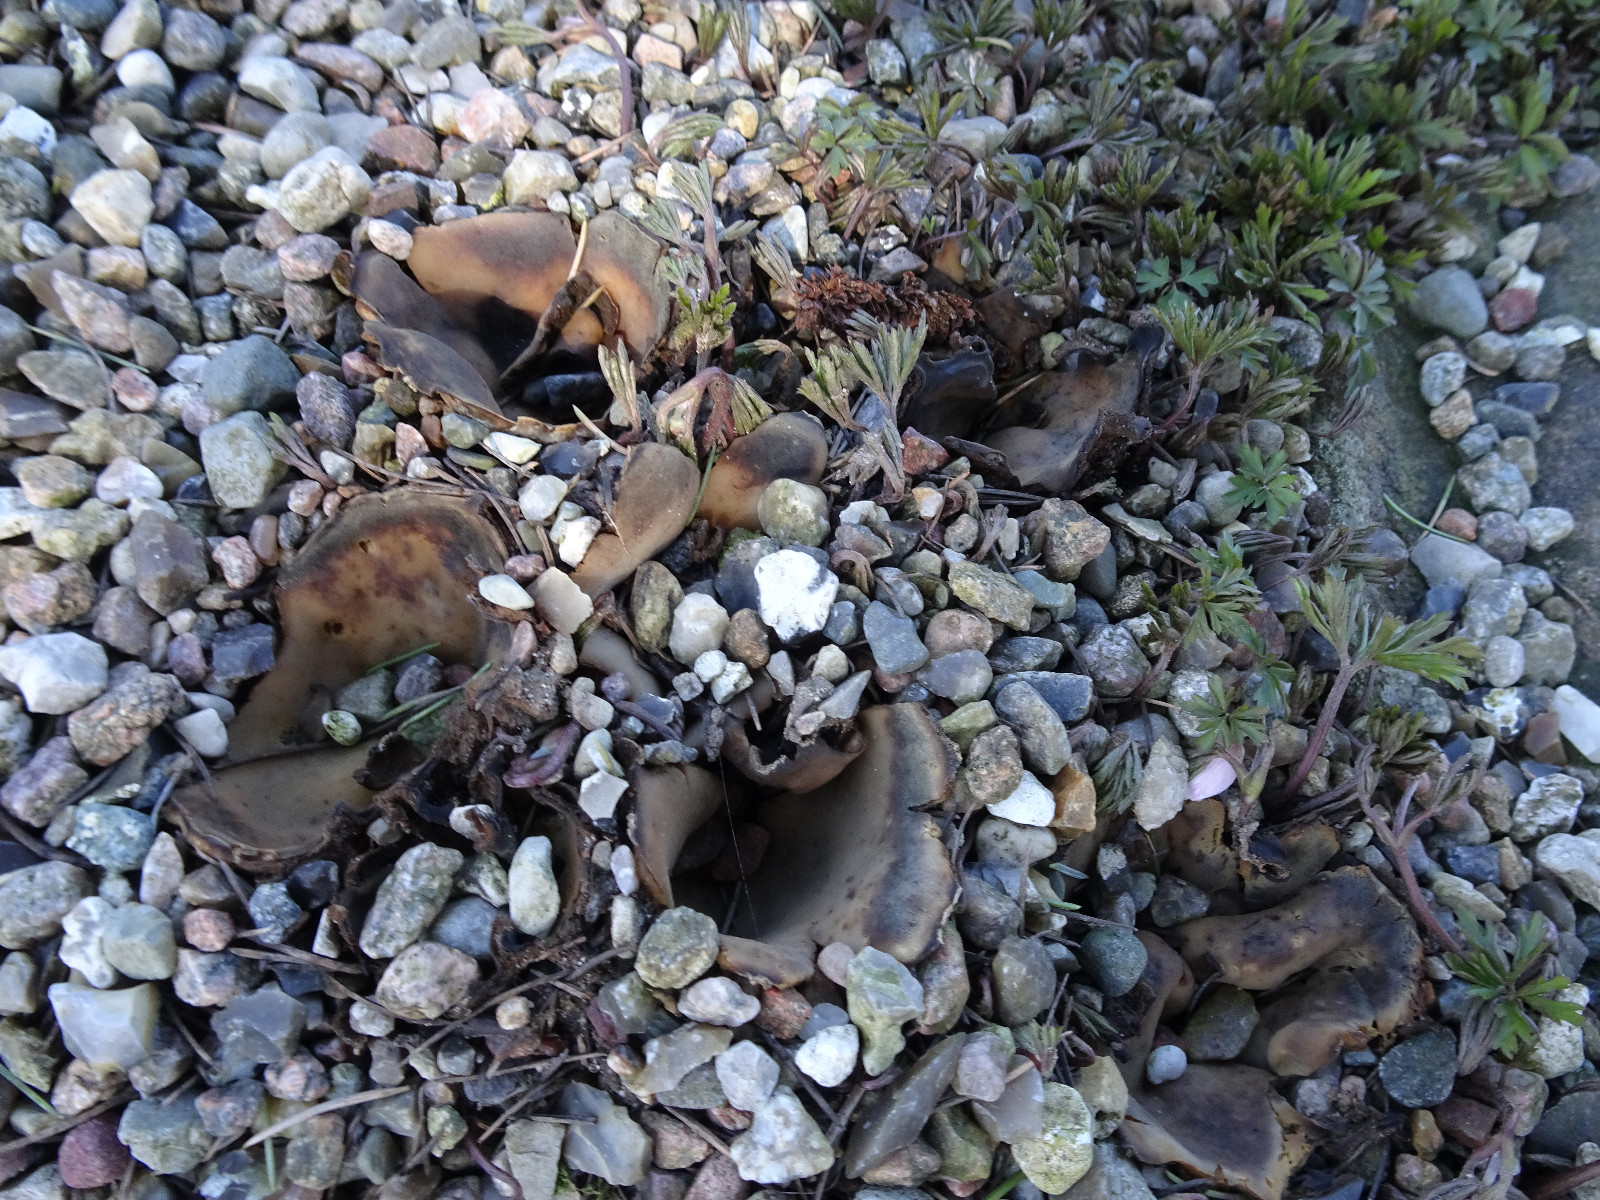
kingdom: Fungi
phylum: Ascomycota
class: Pezizomycetes
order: Pezizales
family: Pyronemataceae
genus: Geopora
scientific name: Geopora sumneriana
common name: vår-jordbæger
